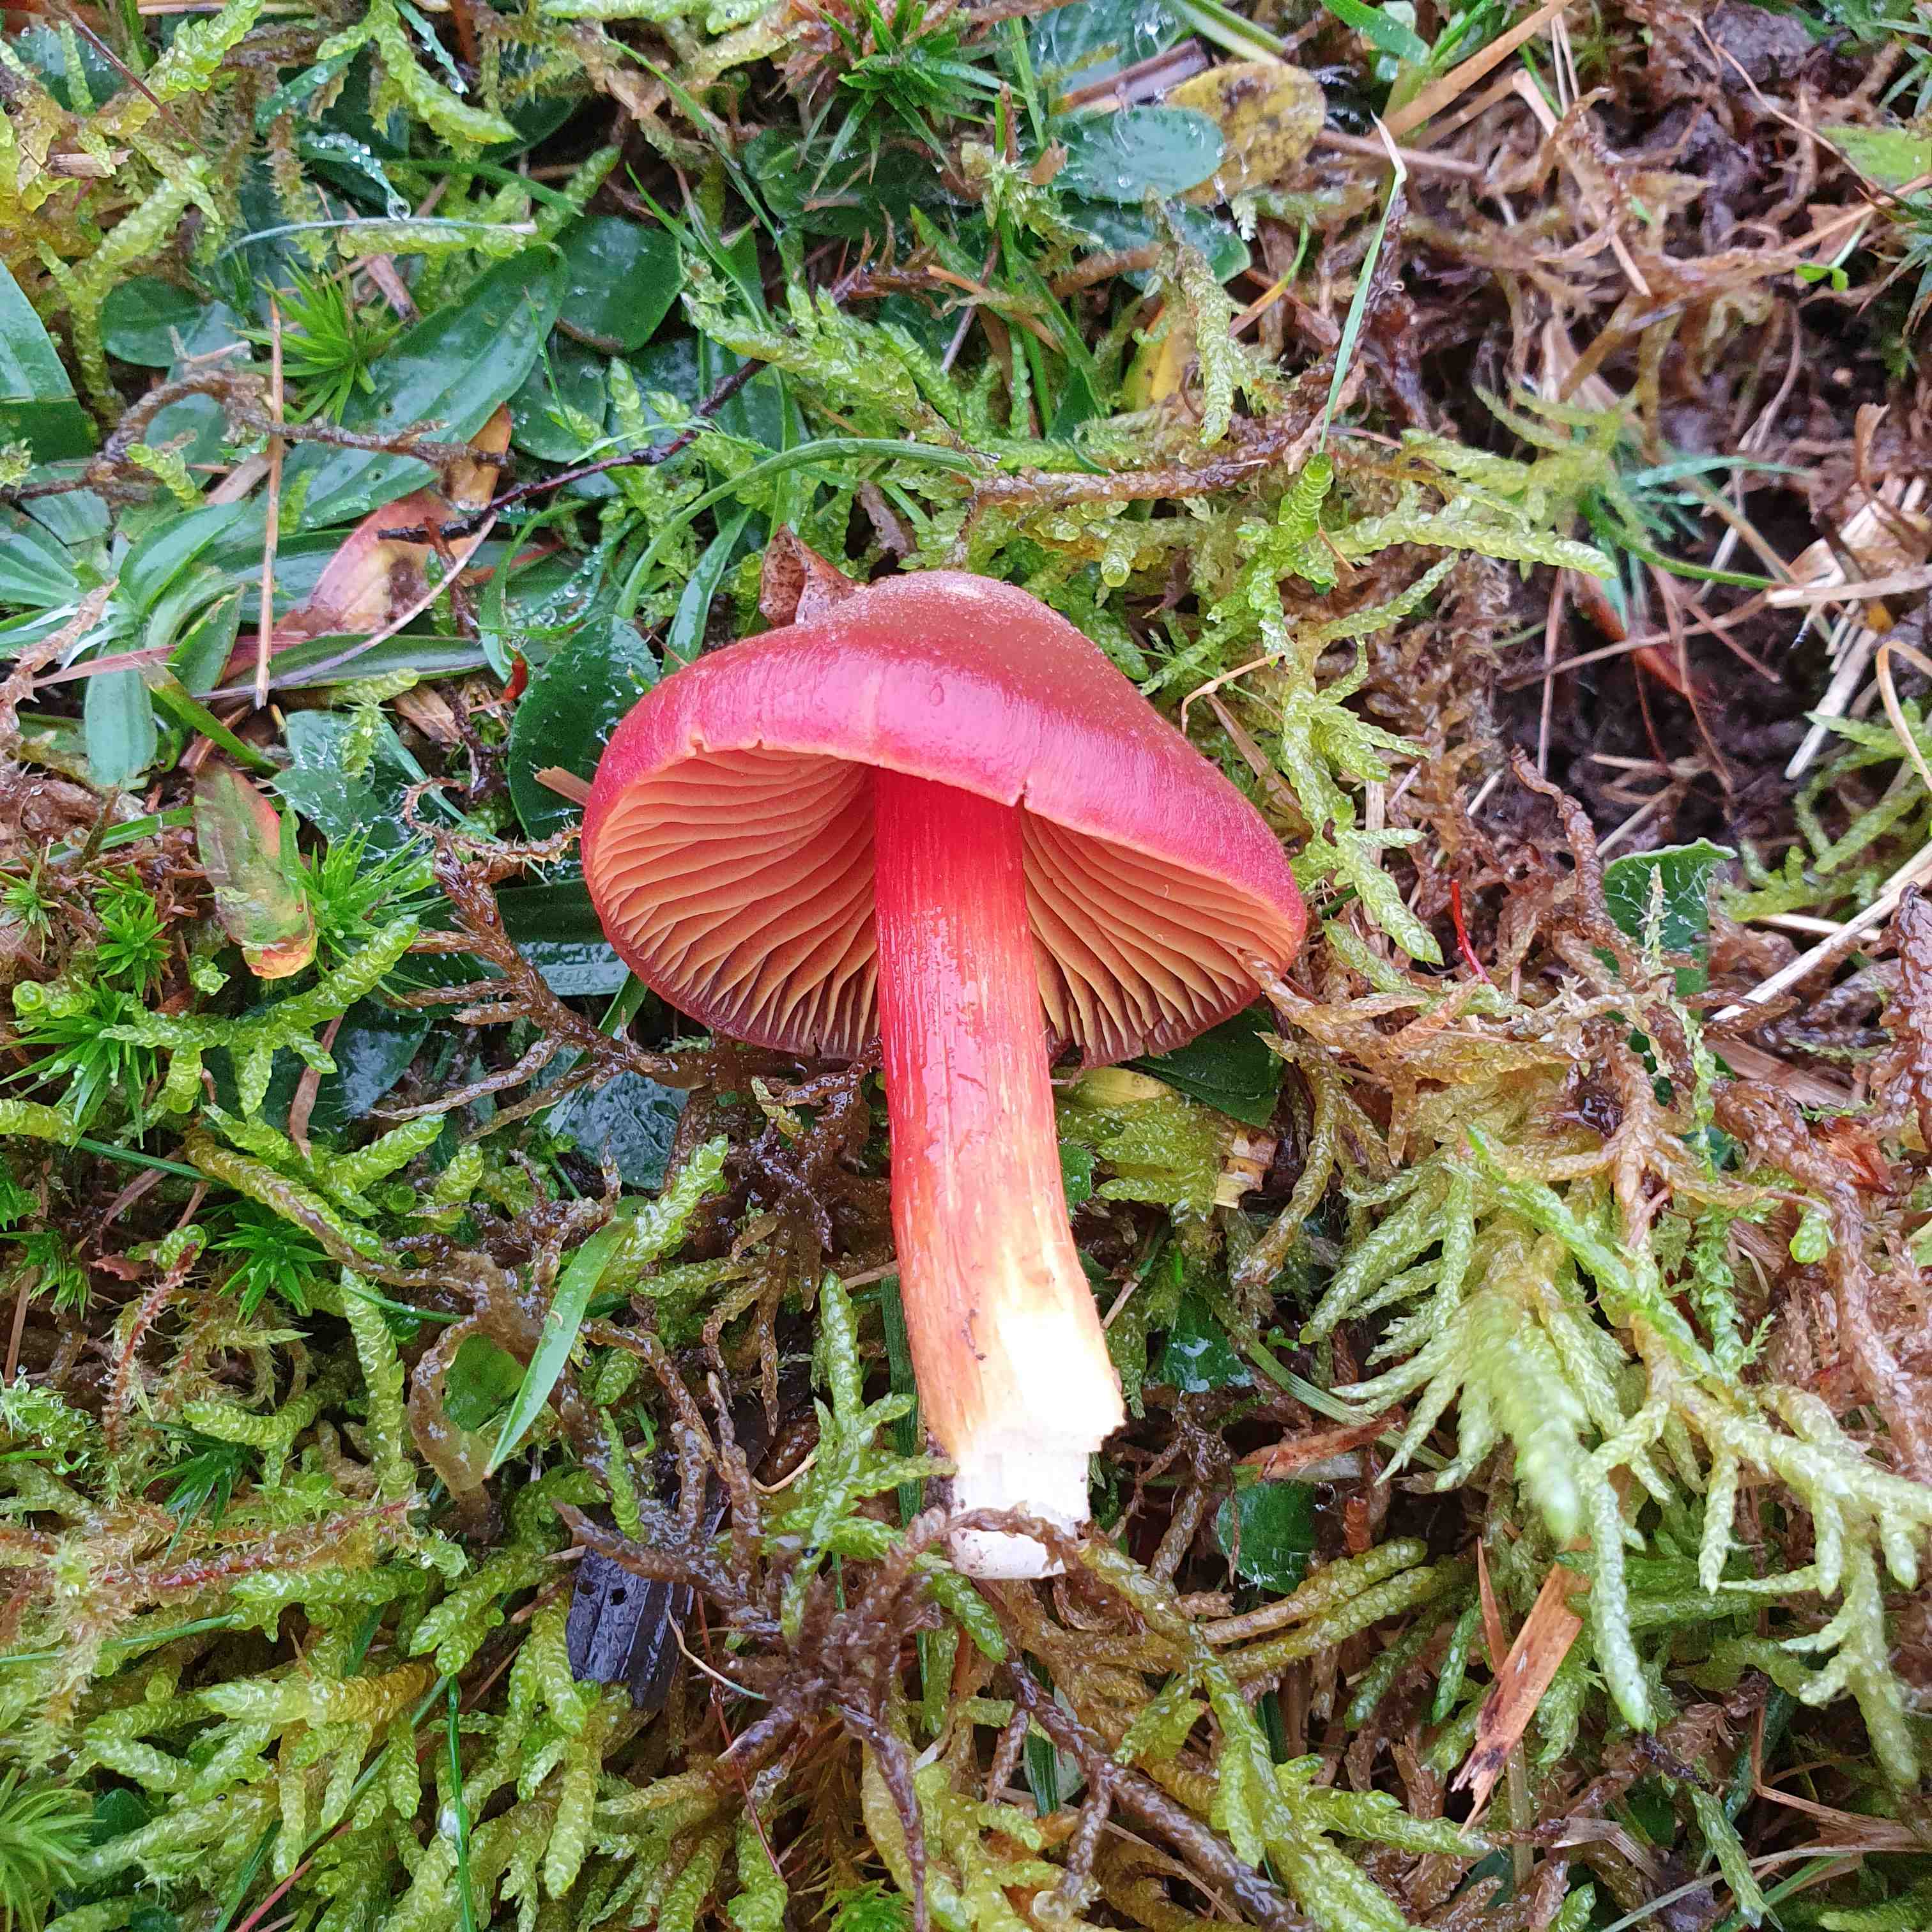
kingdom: Fungi
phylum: Basidiomycota
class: Agaricomycetes
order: Agaricales
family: Hygrophoraceae
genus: Hygrocybe
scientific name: Hygrocybe punicea
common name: skarlagen-vokshat
